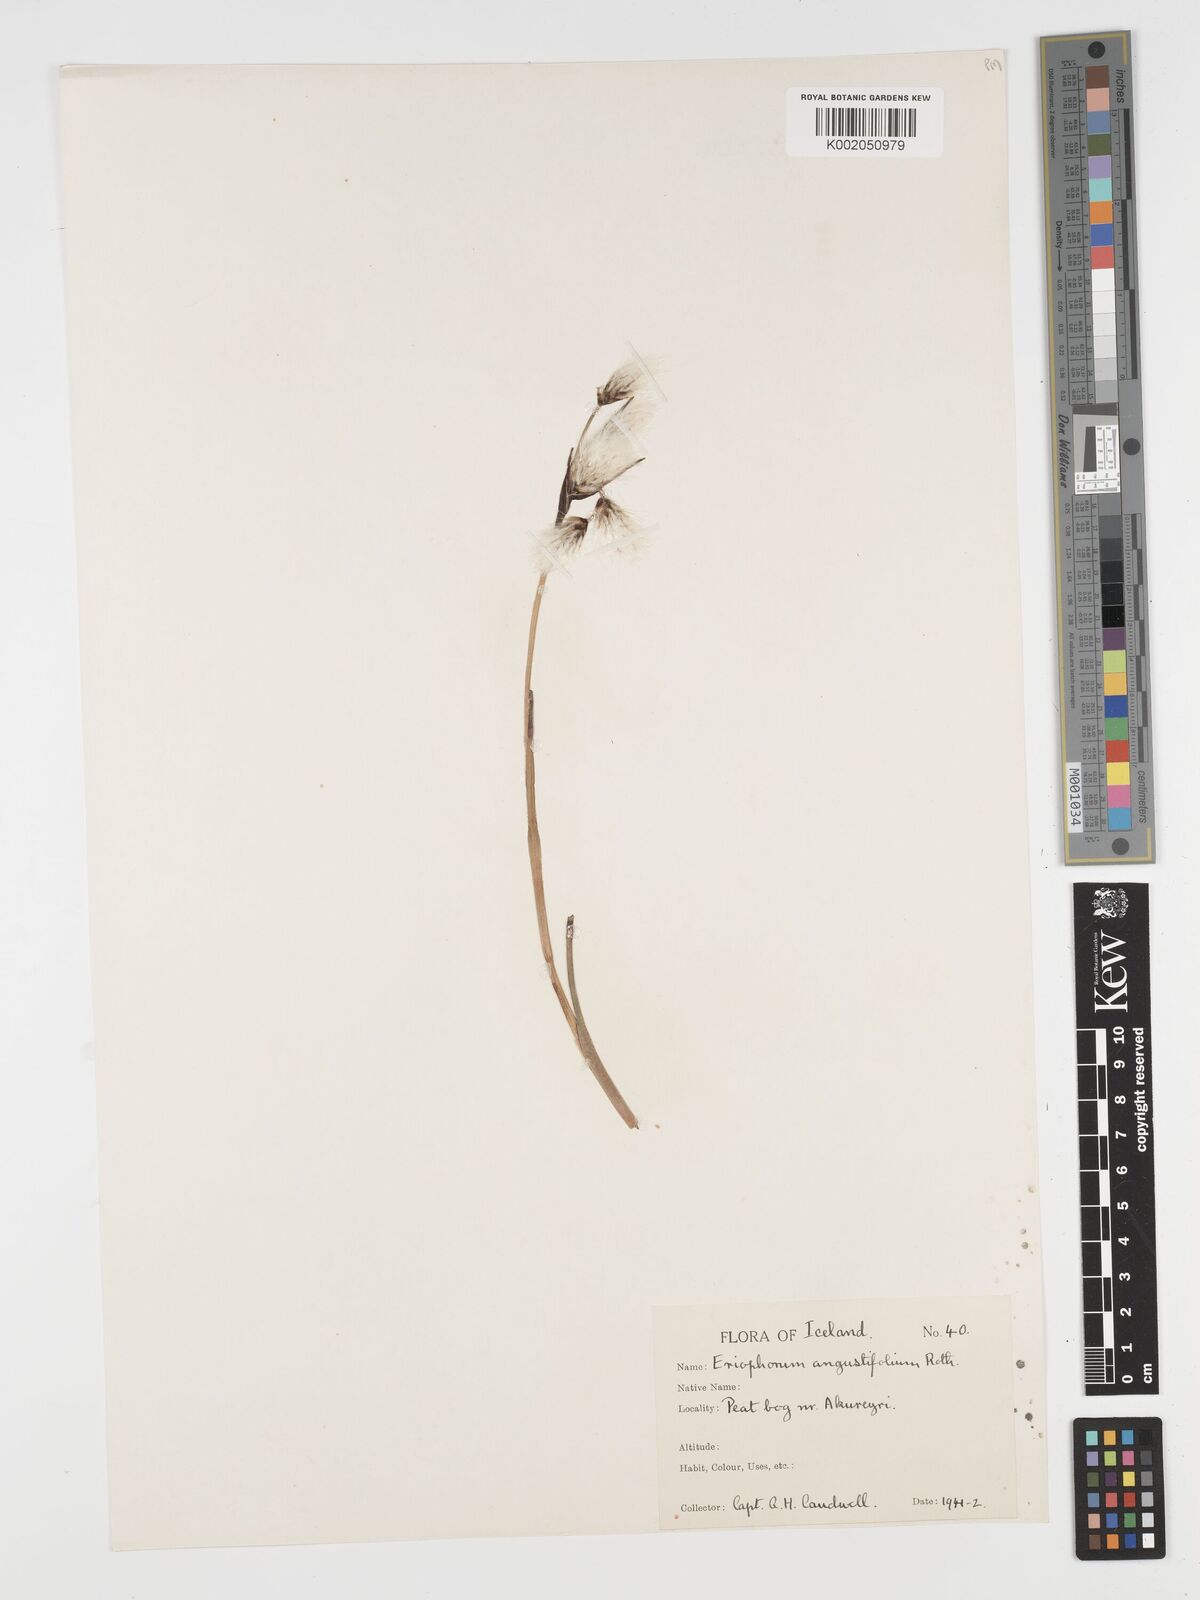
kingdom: Plantae
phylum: Tracheophyta
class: Liliopsida
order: Poales
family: Cyperaceae
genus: Eriophorum
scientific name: Eriophorum angustifolium
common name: Common cottongrass
